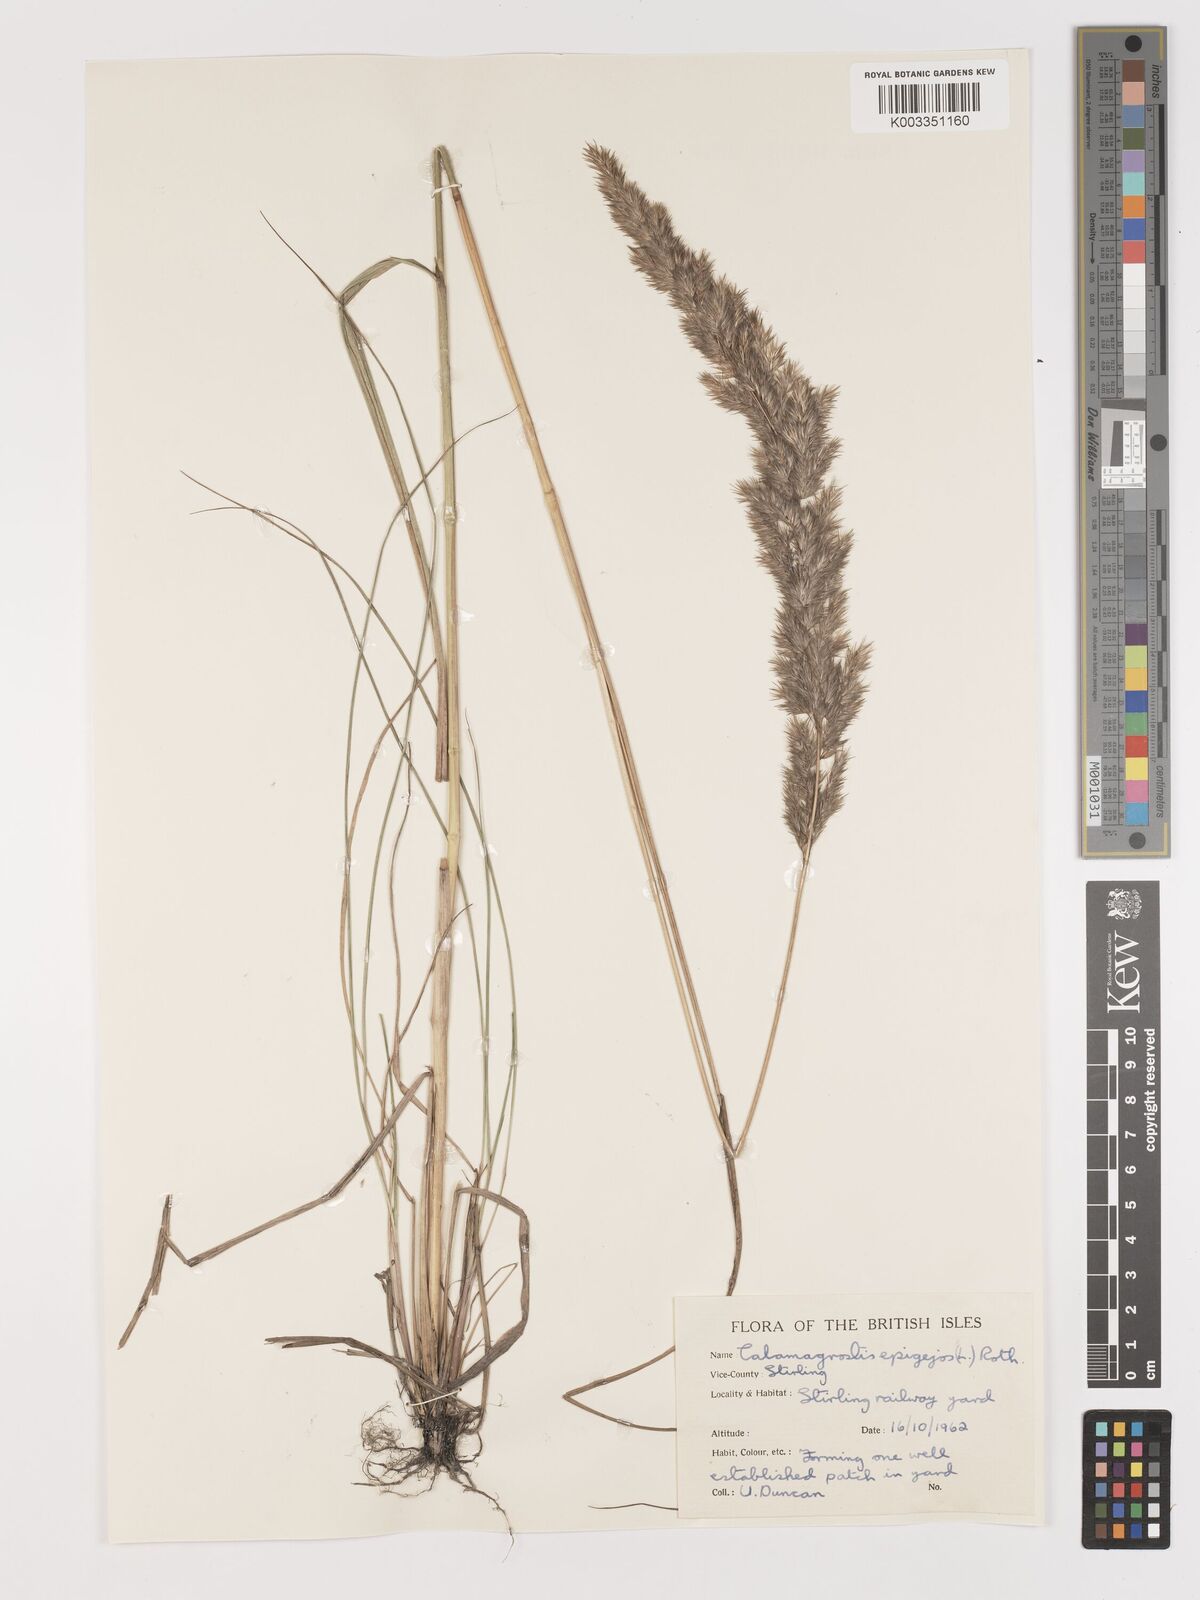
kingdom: Plantae
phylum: Tracheophyta
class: Liliopsida
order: Poales
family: Poaceae
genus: Calamagrostis
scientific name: Calamagrostis
